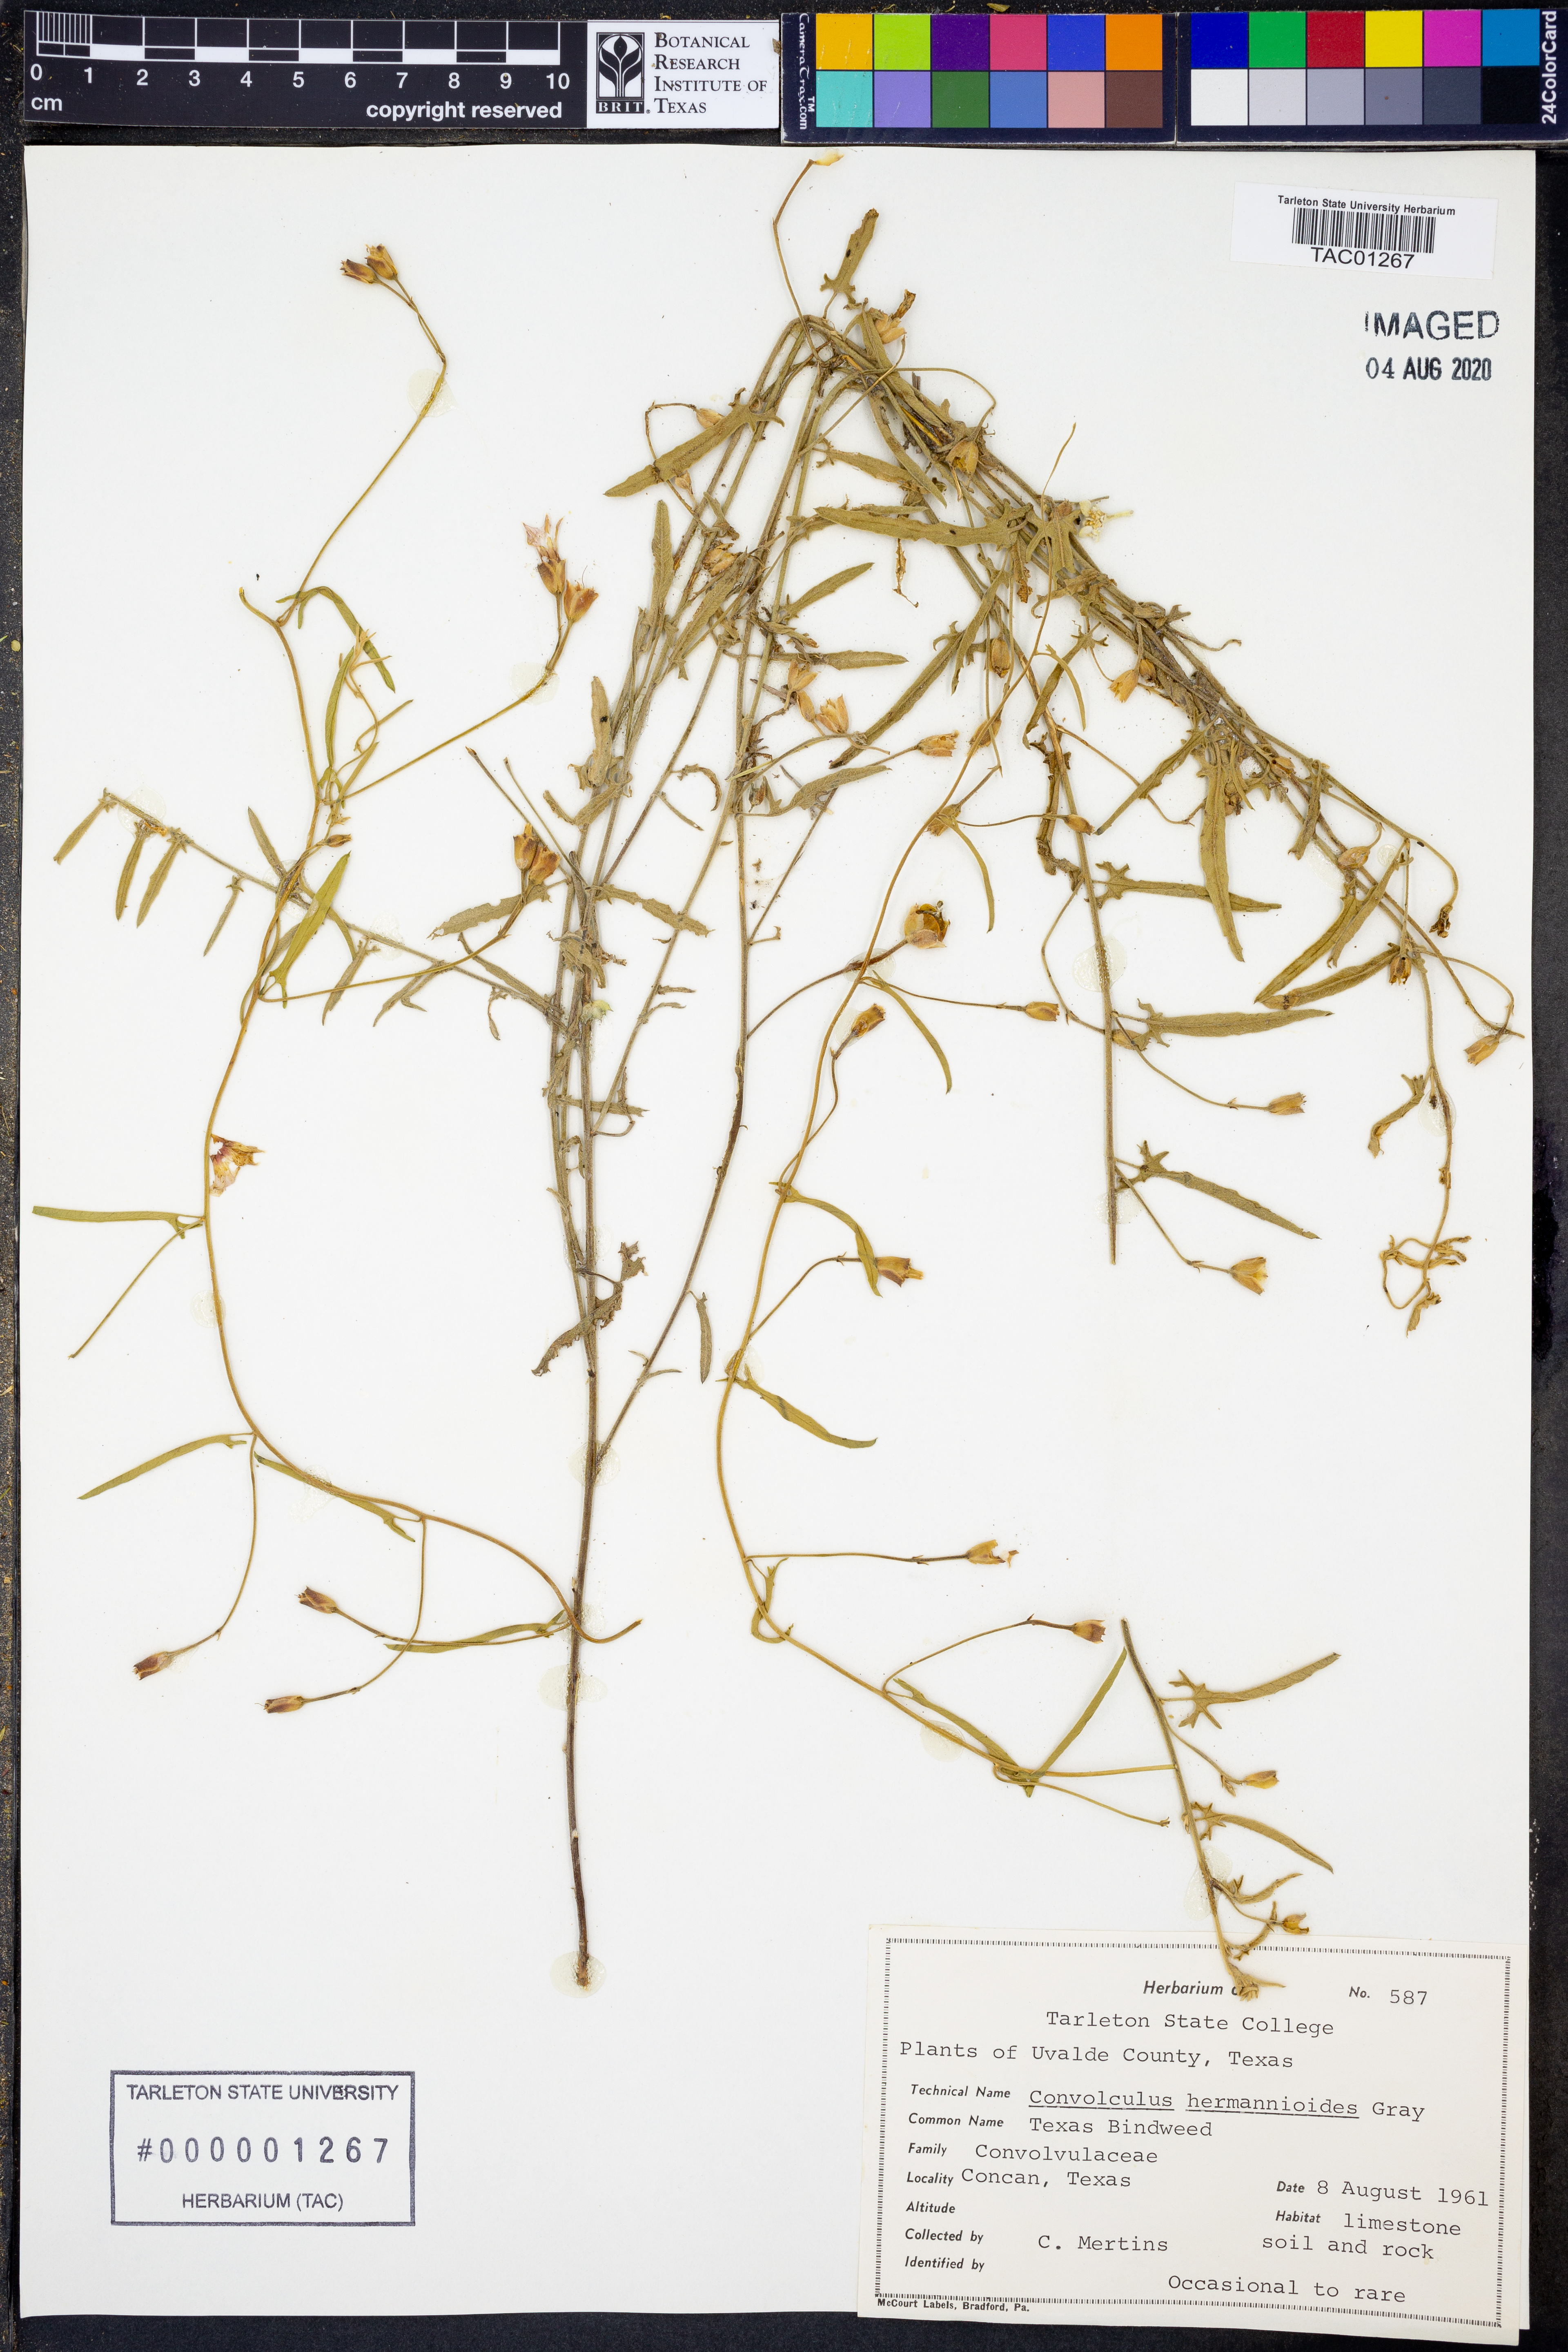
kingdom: Plantae
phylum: Tracheophyta
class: Magnoliopsida
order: Solanales
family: Convolvulaceae
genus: Convolvulus
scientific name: Convolvulus equitans
